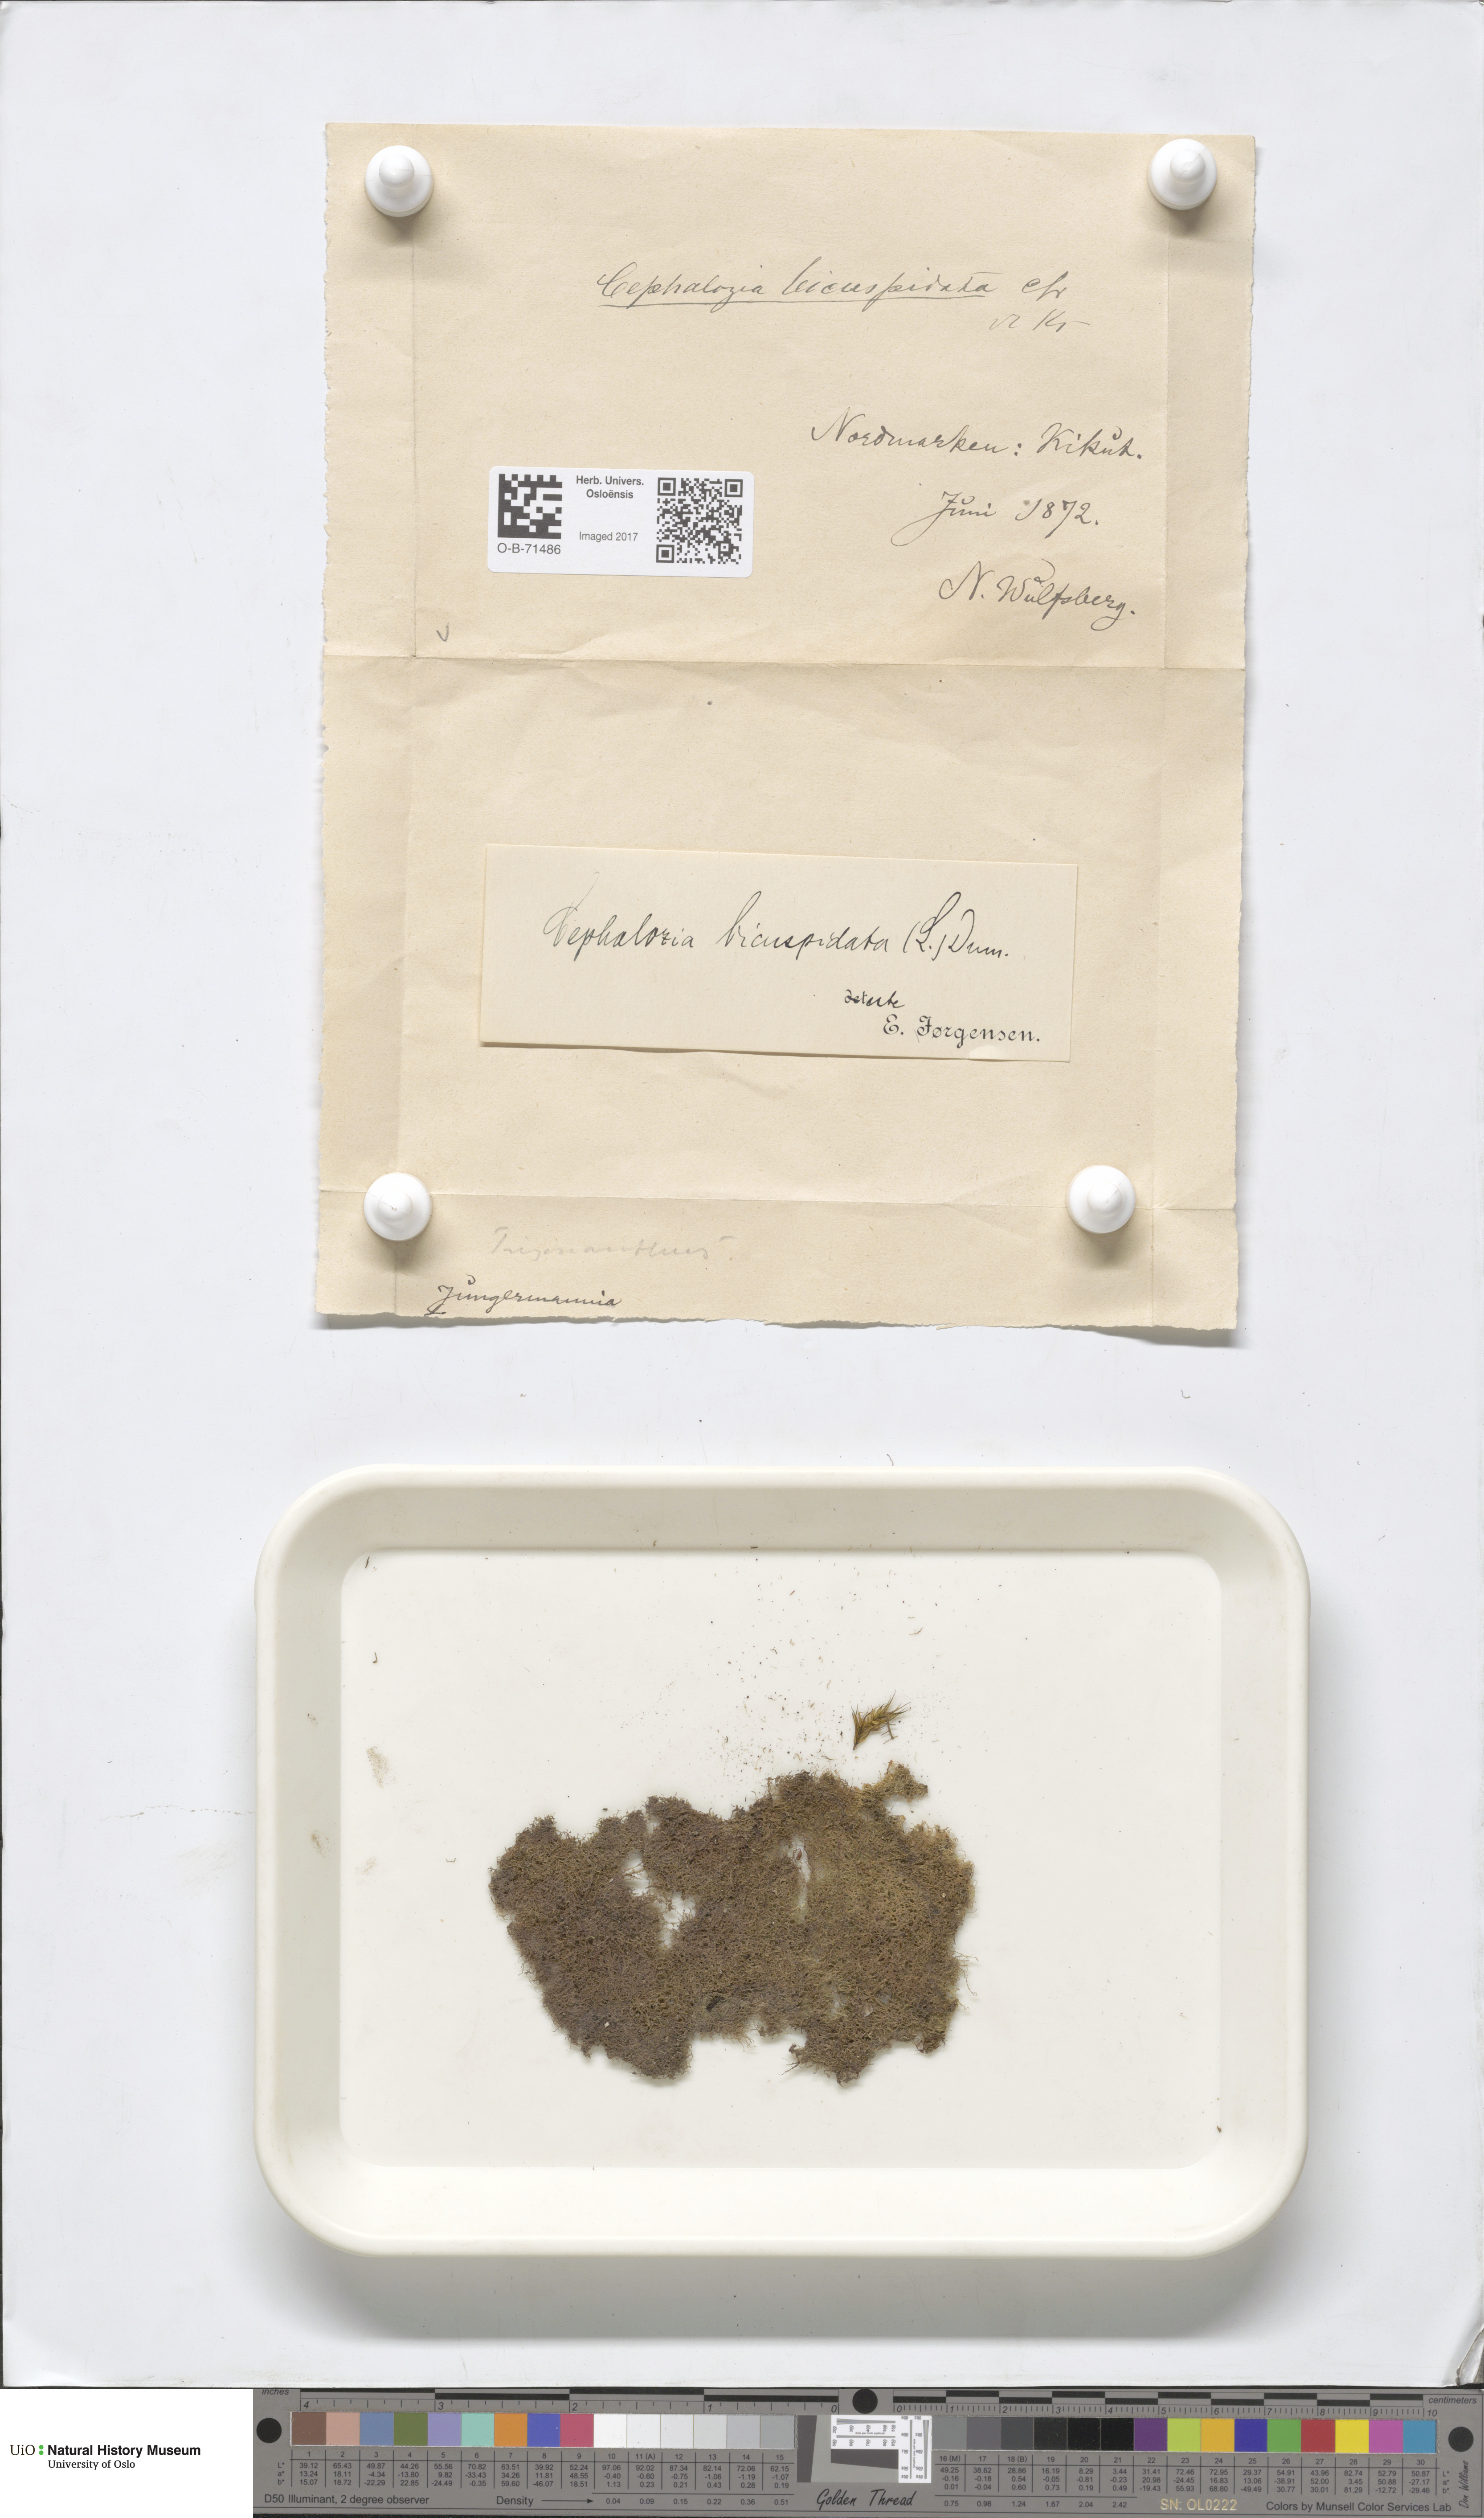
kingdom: Plantae
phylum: Marchantiophyta
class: Jungermanniopsida
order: Jungermanniales
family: Cephaloziaceae
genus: Cephalozia
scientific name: Cephalozia bicuspidata
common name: Two-horned pincerwort
